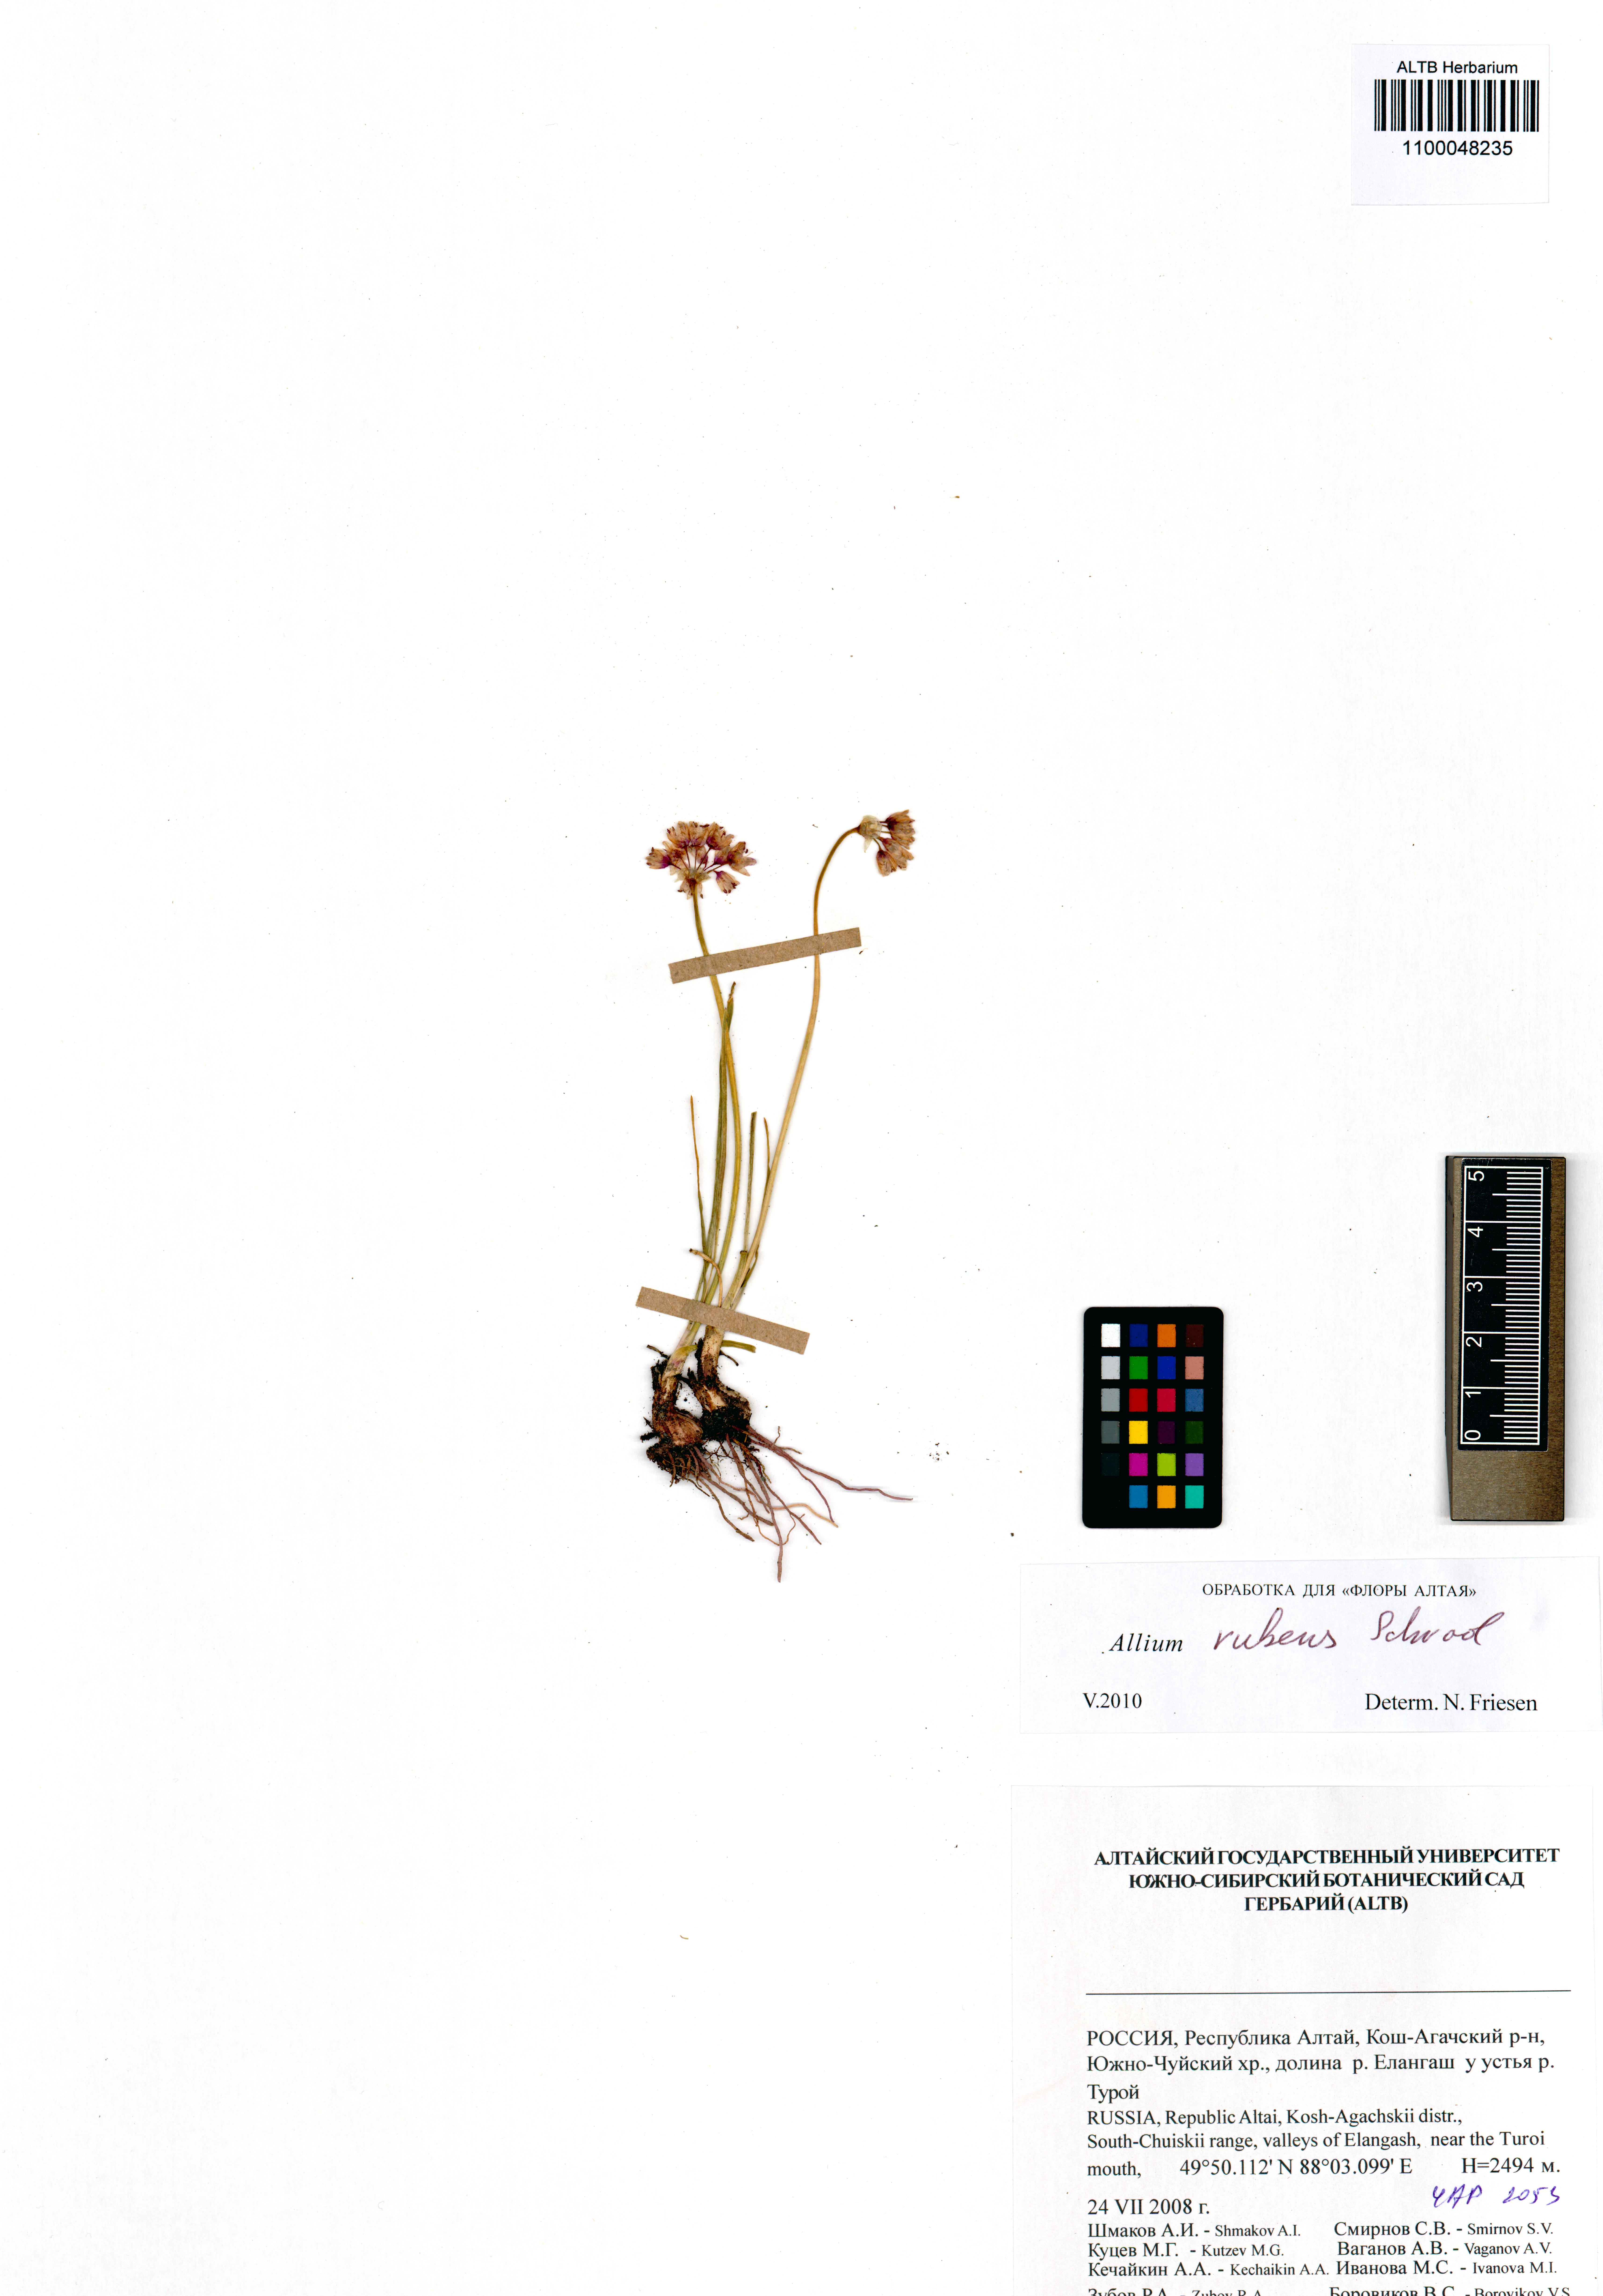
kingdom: Plantae
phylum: Tracheophyta
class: Liliopsida
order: Asparagales
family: Amaryllidaceae
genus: Allium
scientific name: Allium rubens
